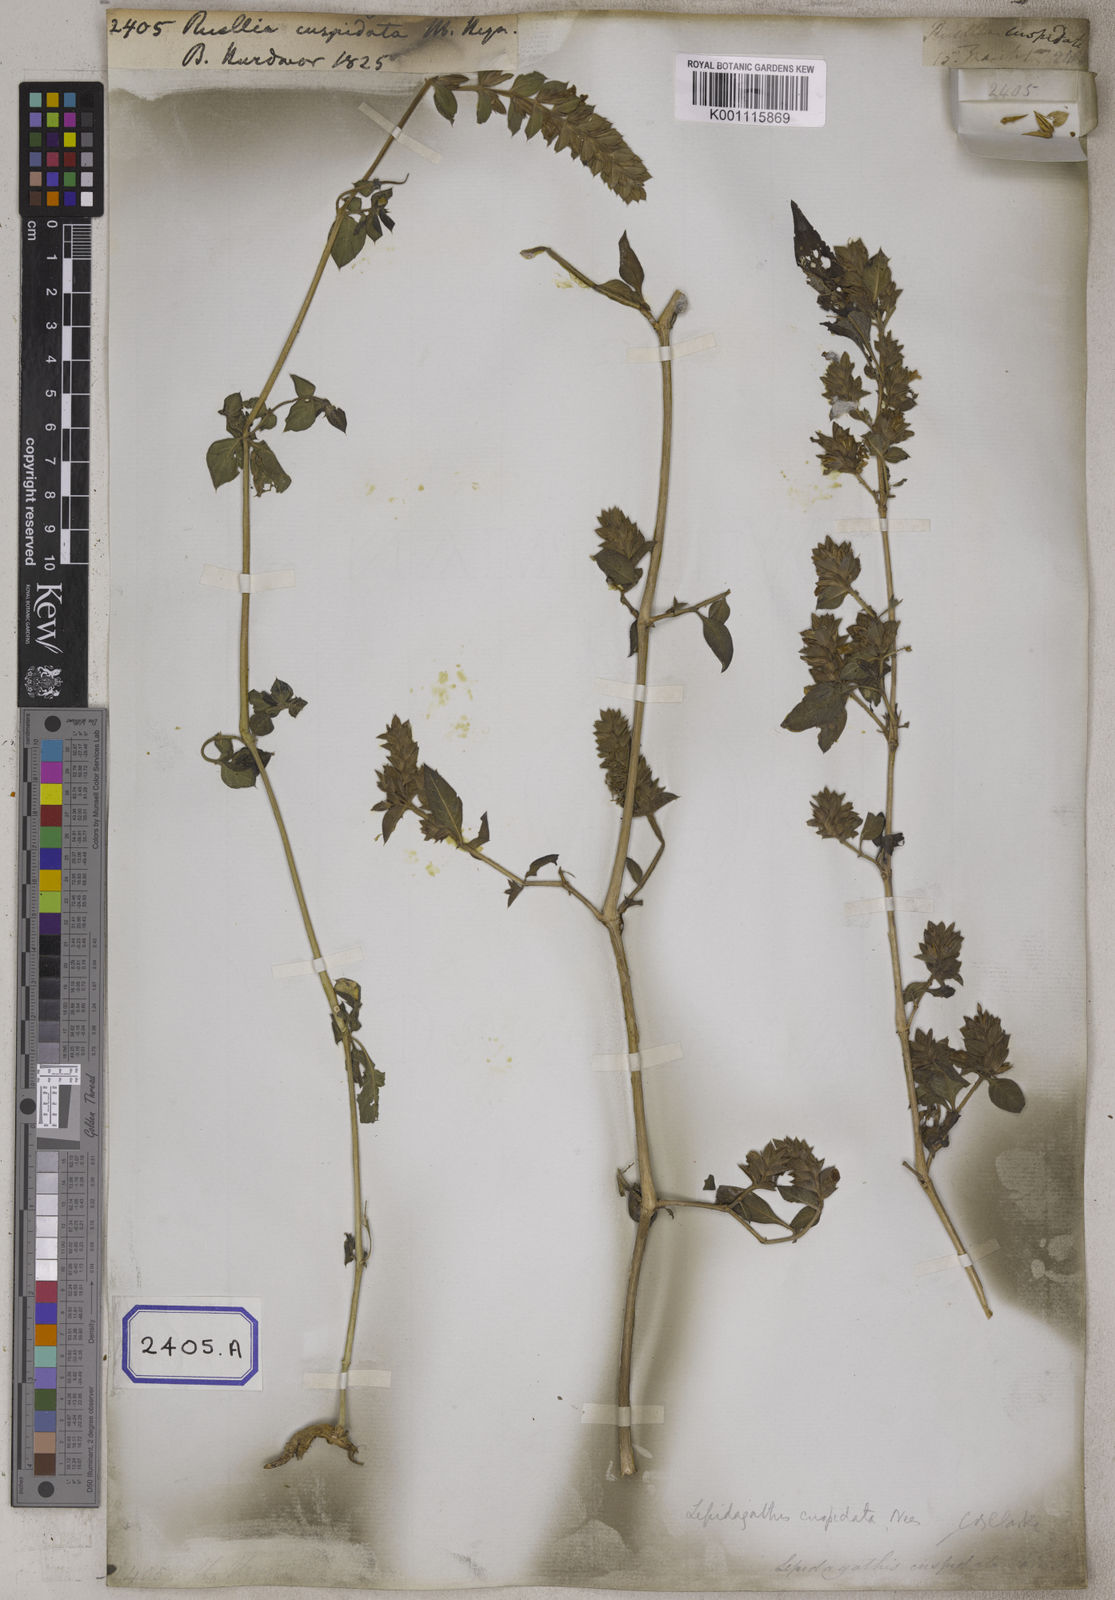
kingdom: Plantae
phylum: Tracheophyta
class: Magnoliopsida
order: Lamiales
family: Acanthaceae
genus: Lepidagathis
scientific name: Lepidagathis cuspidata
